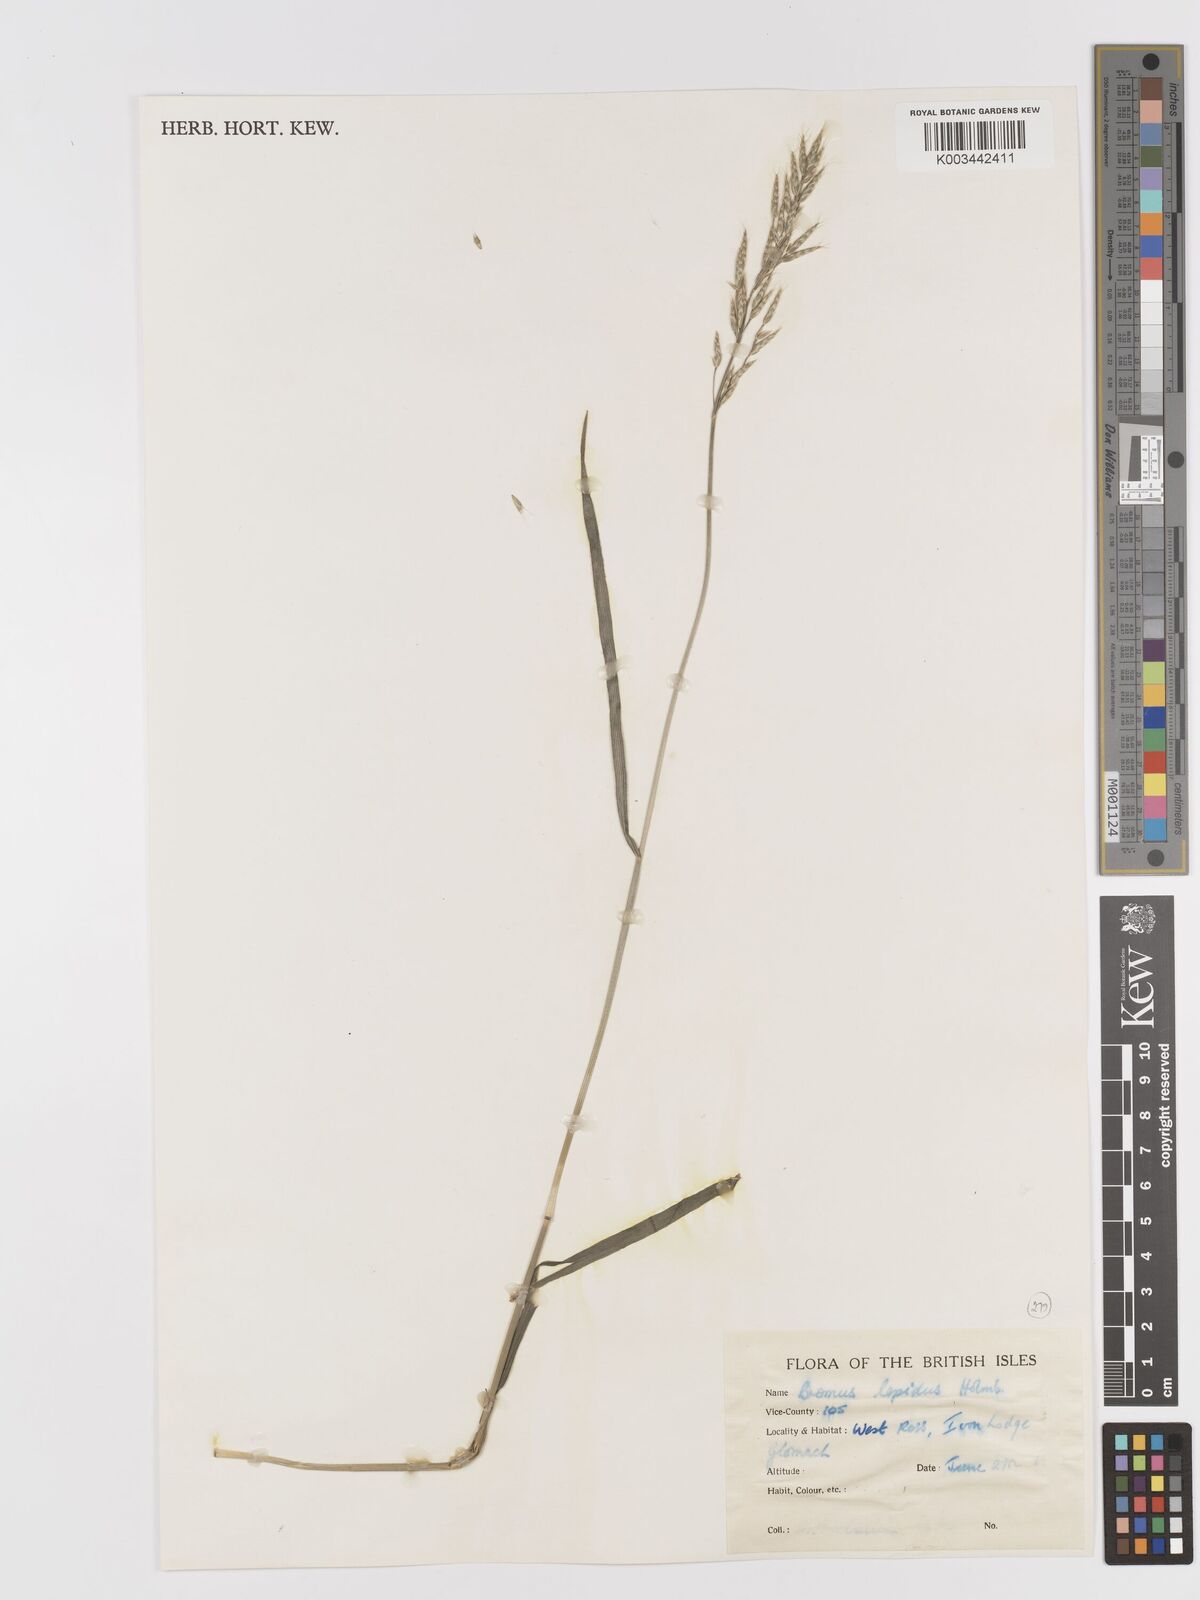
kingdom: Plantae
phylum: Tracheophyta
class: Liliopsida
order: Poales
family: Poaceae
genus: Bromus
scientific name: Bromus lepidus
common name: Slender soft-brome
